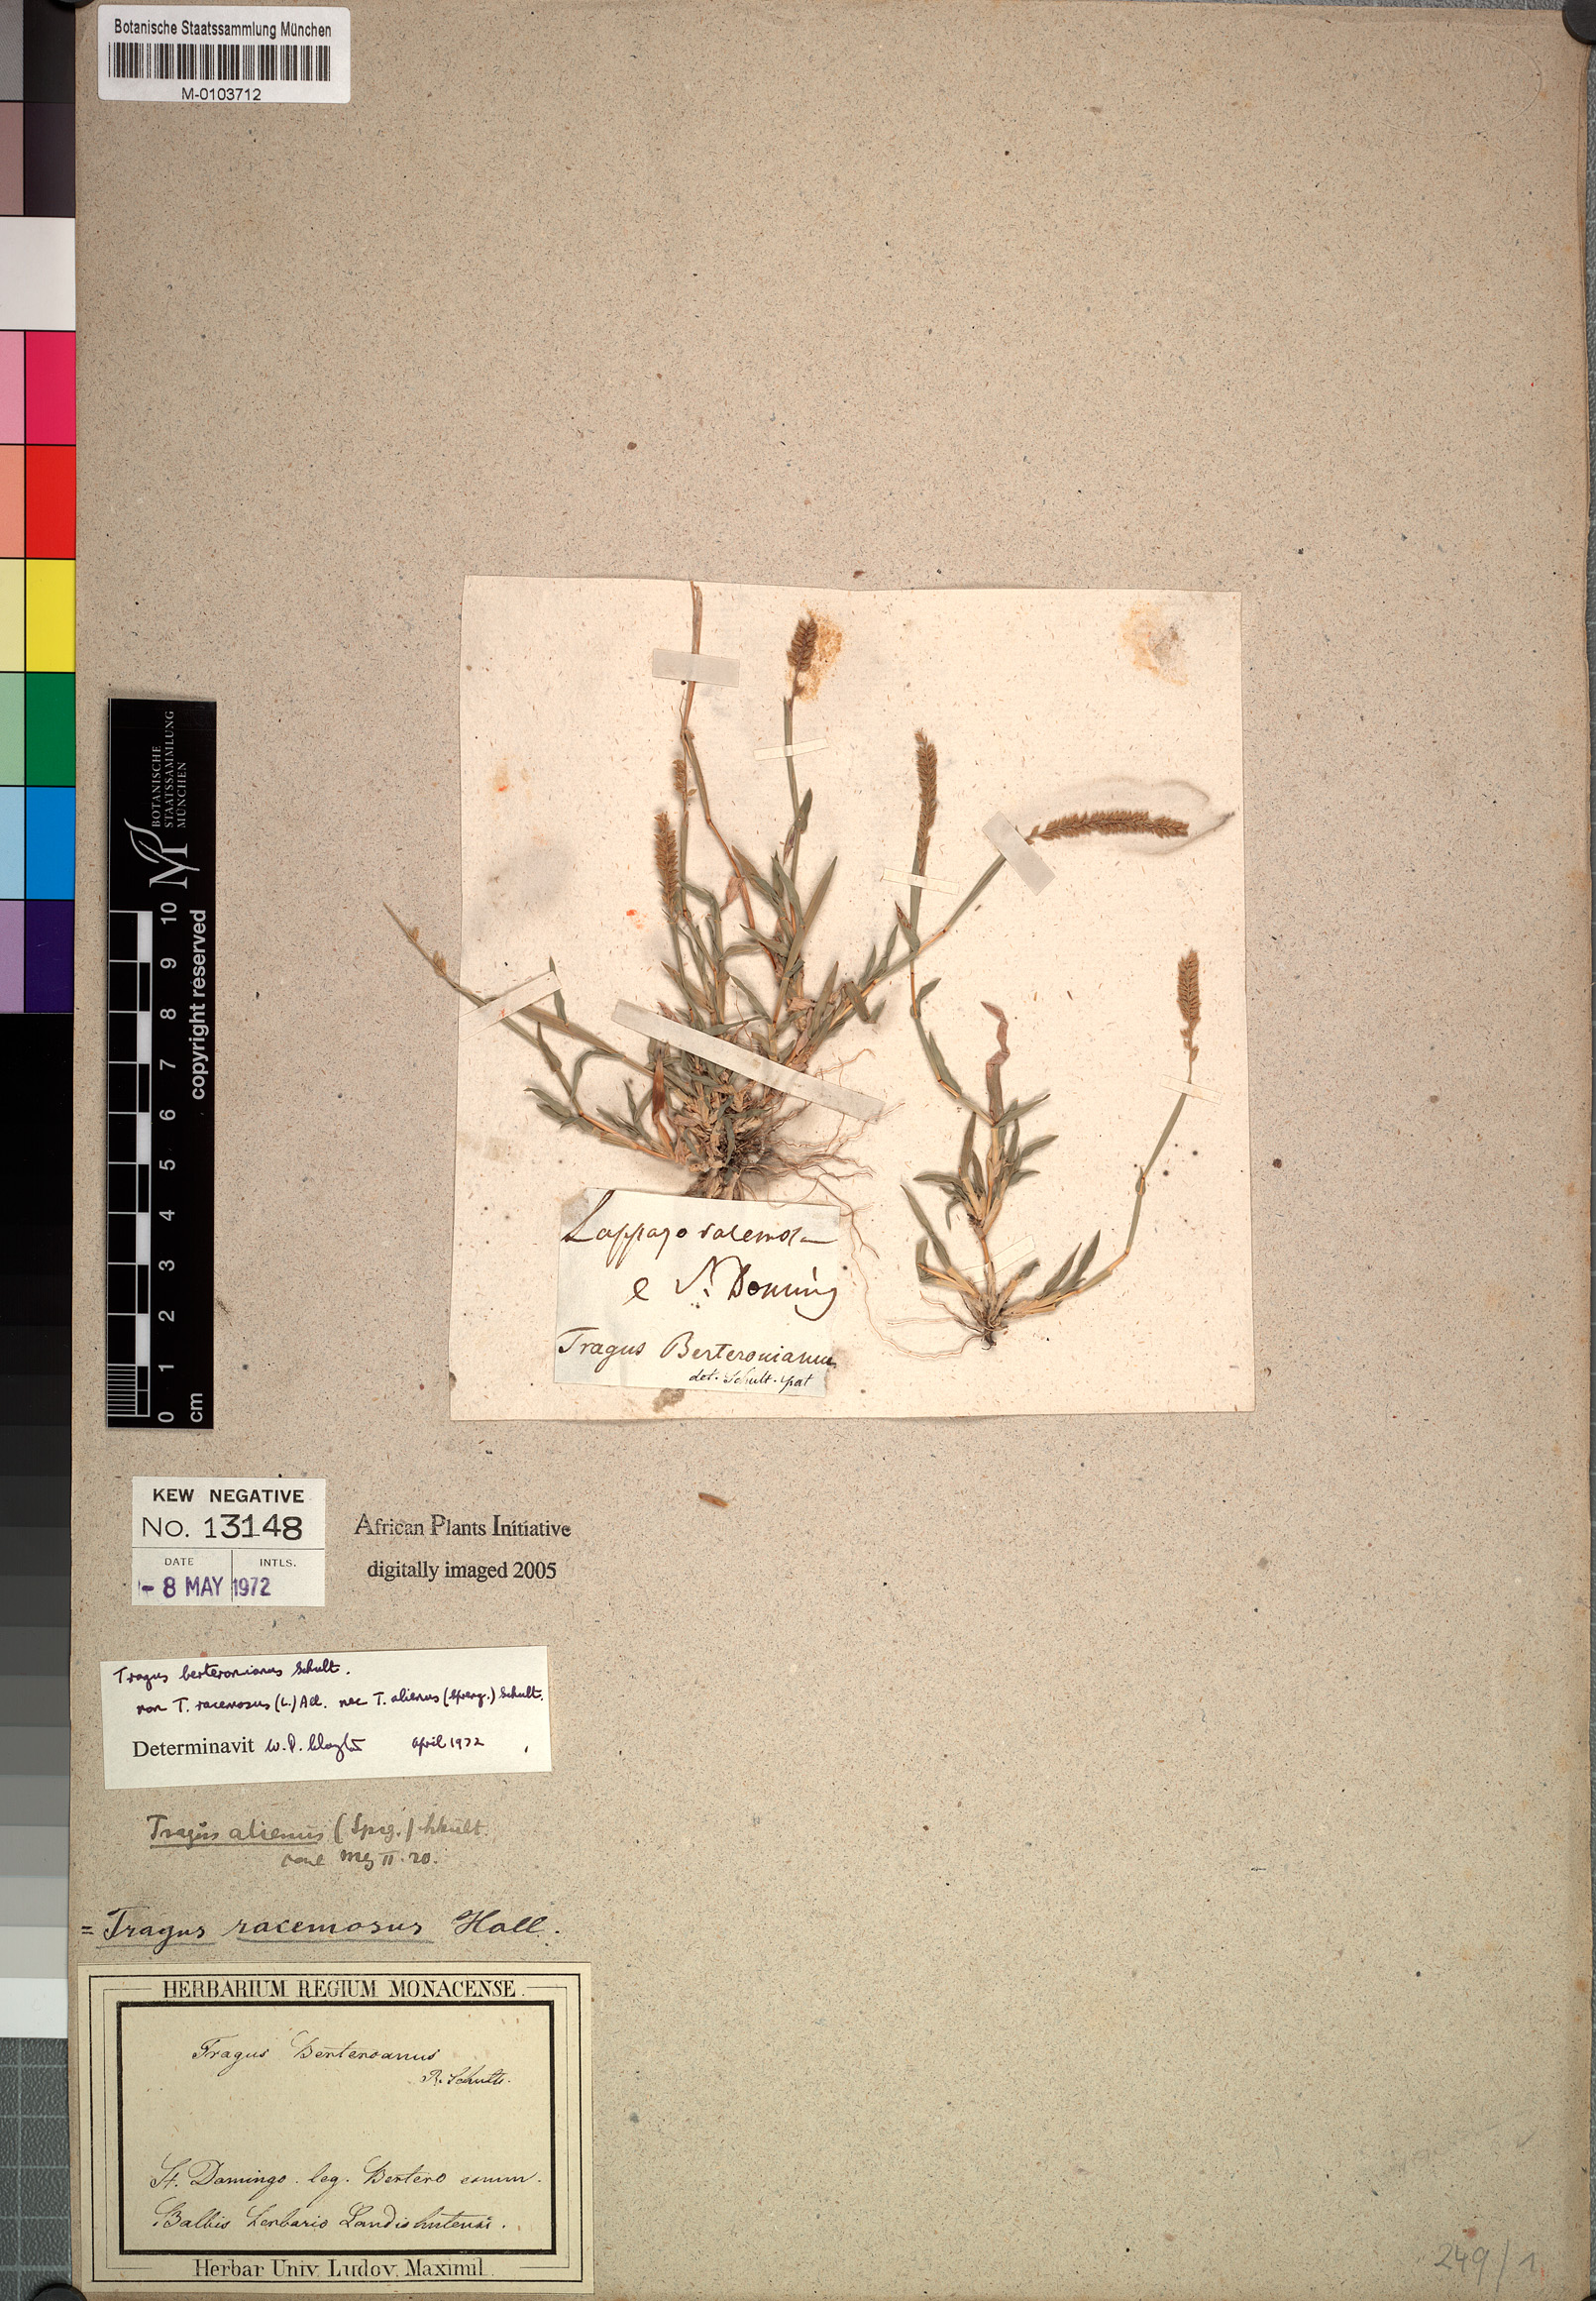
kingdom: Plantae
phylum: Tracheophyta
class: Liliopsida
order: Poales
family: Poaceae
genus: Tragus
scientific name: Tragus berteronianus
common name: African bur-grass
